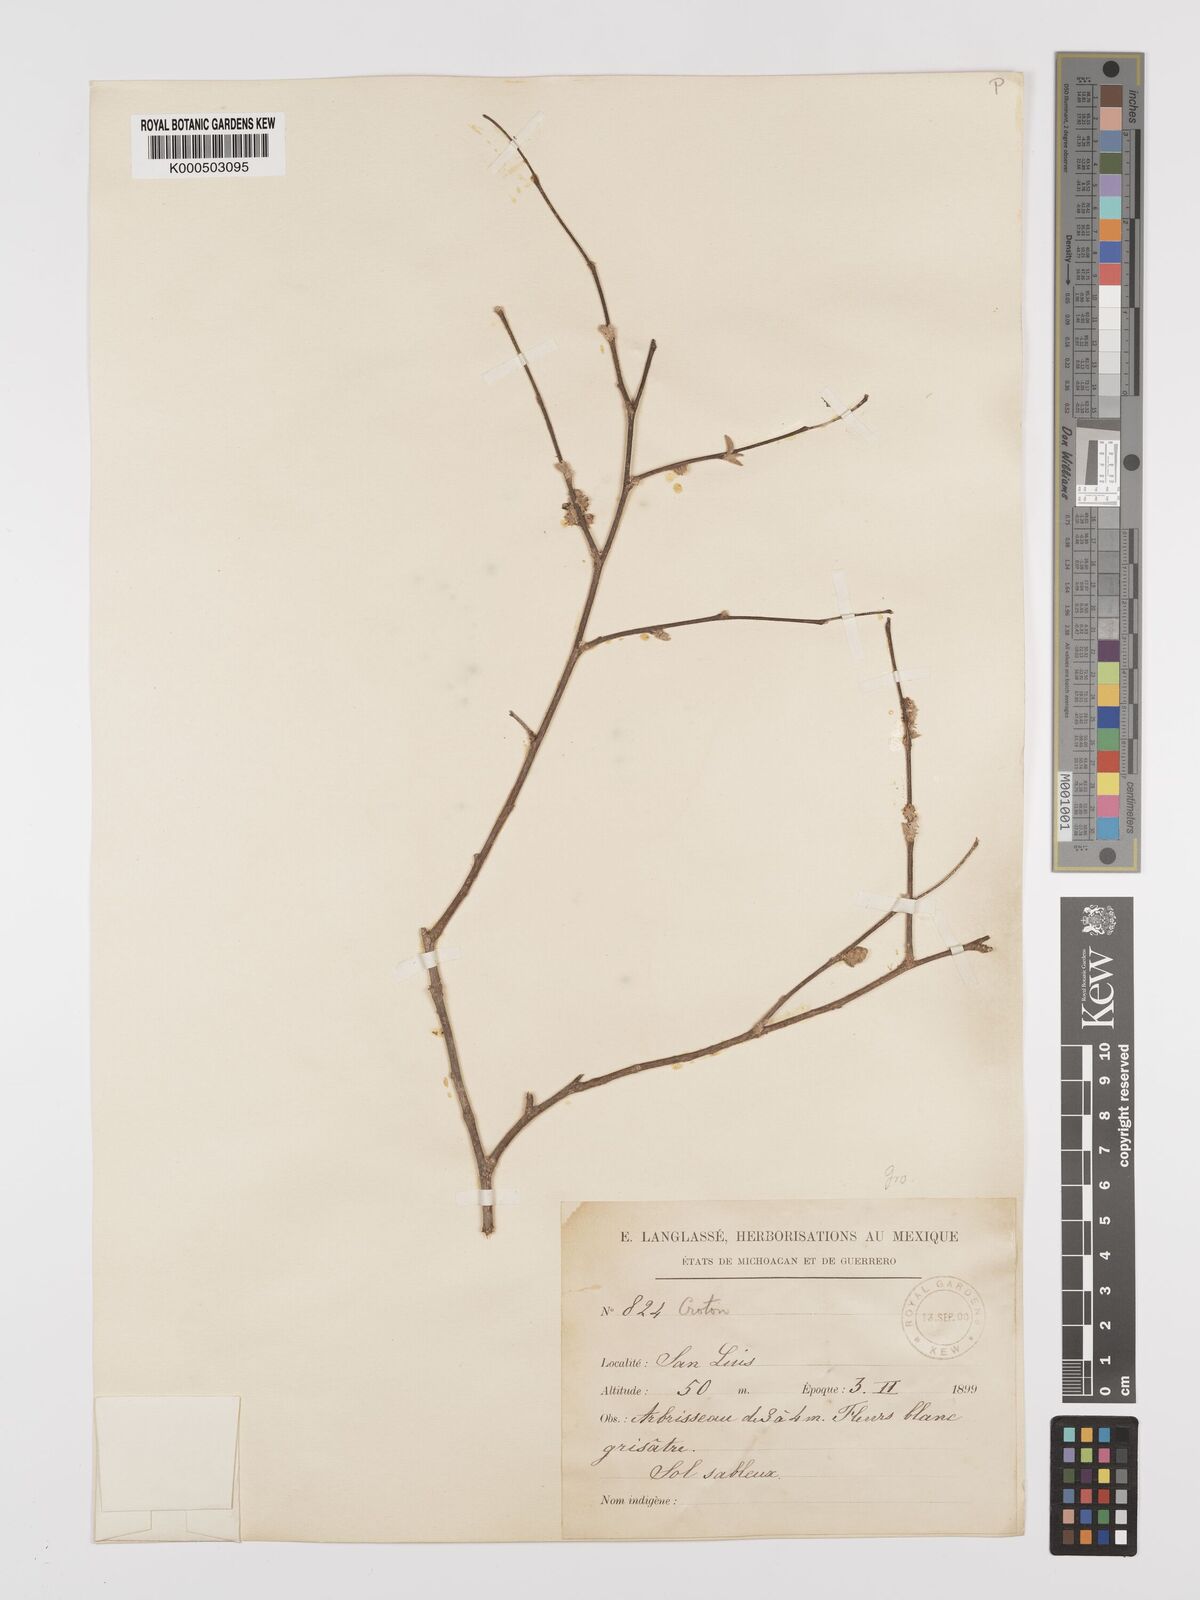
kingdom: Plantae
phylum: Tracheophyta
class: Magnoliopsida
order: Malpighiales
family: Euphorbiaceae
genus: Croton
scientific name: Croton
